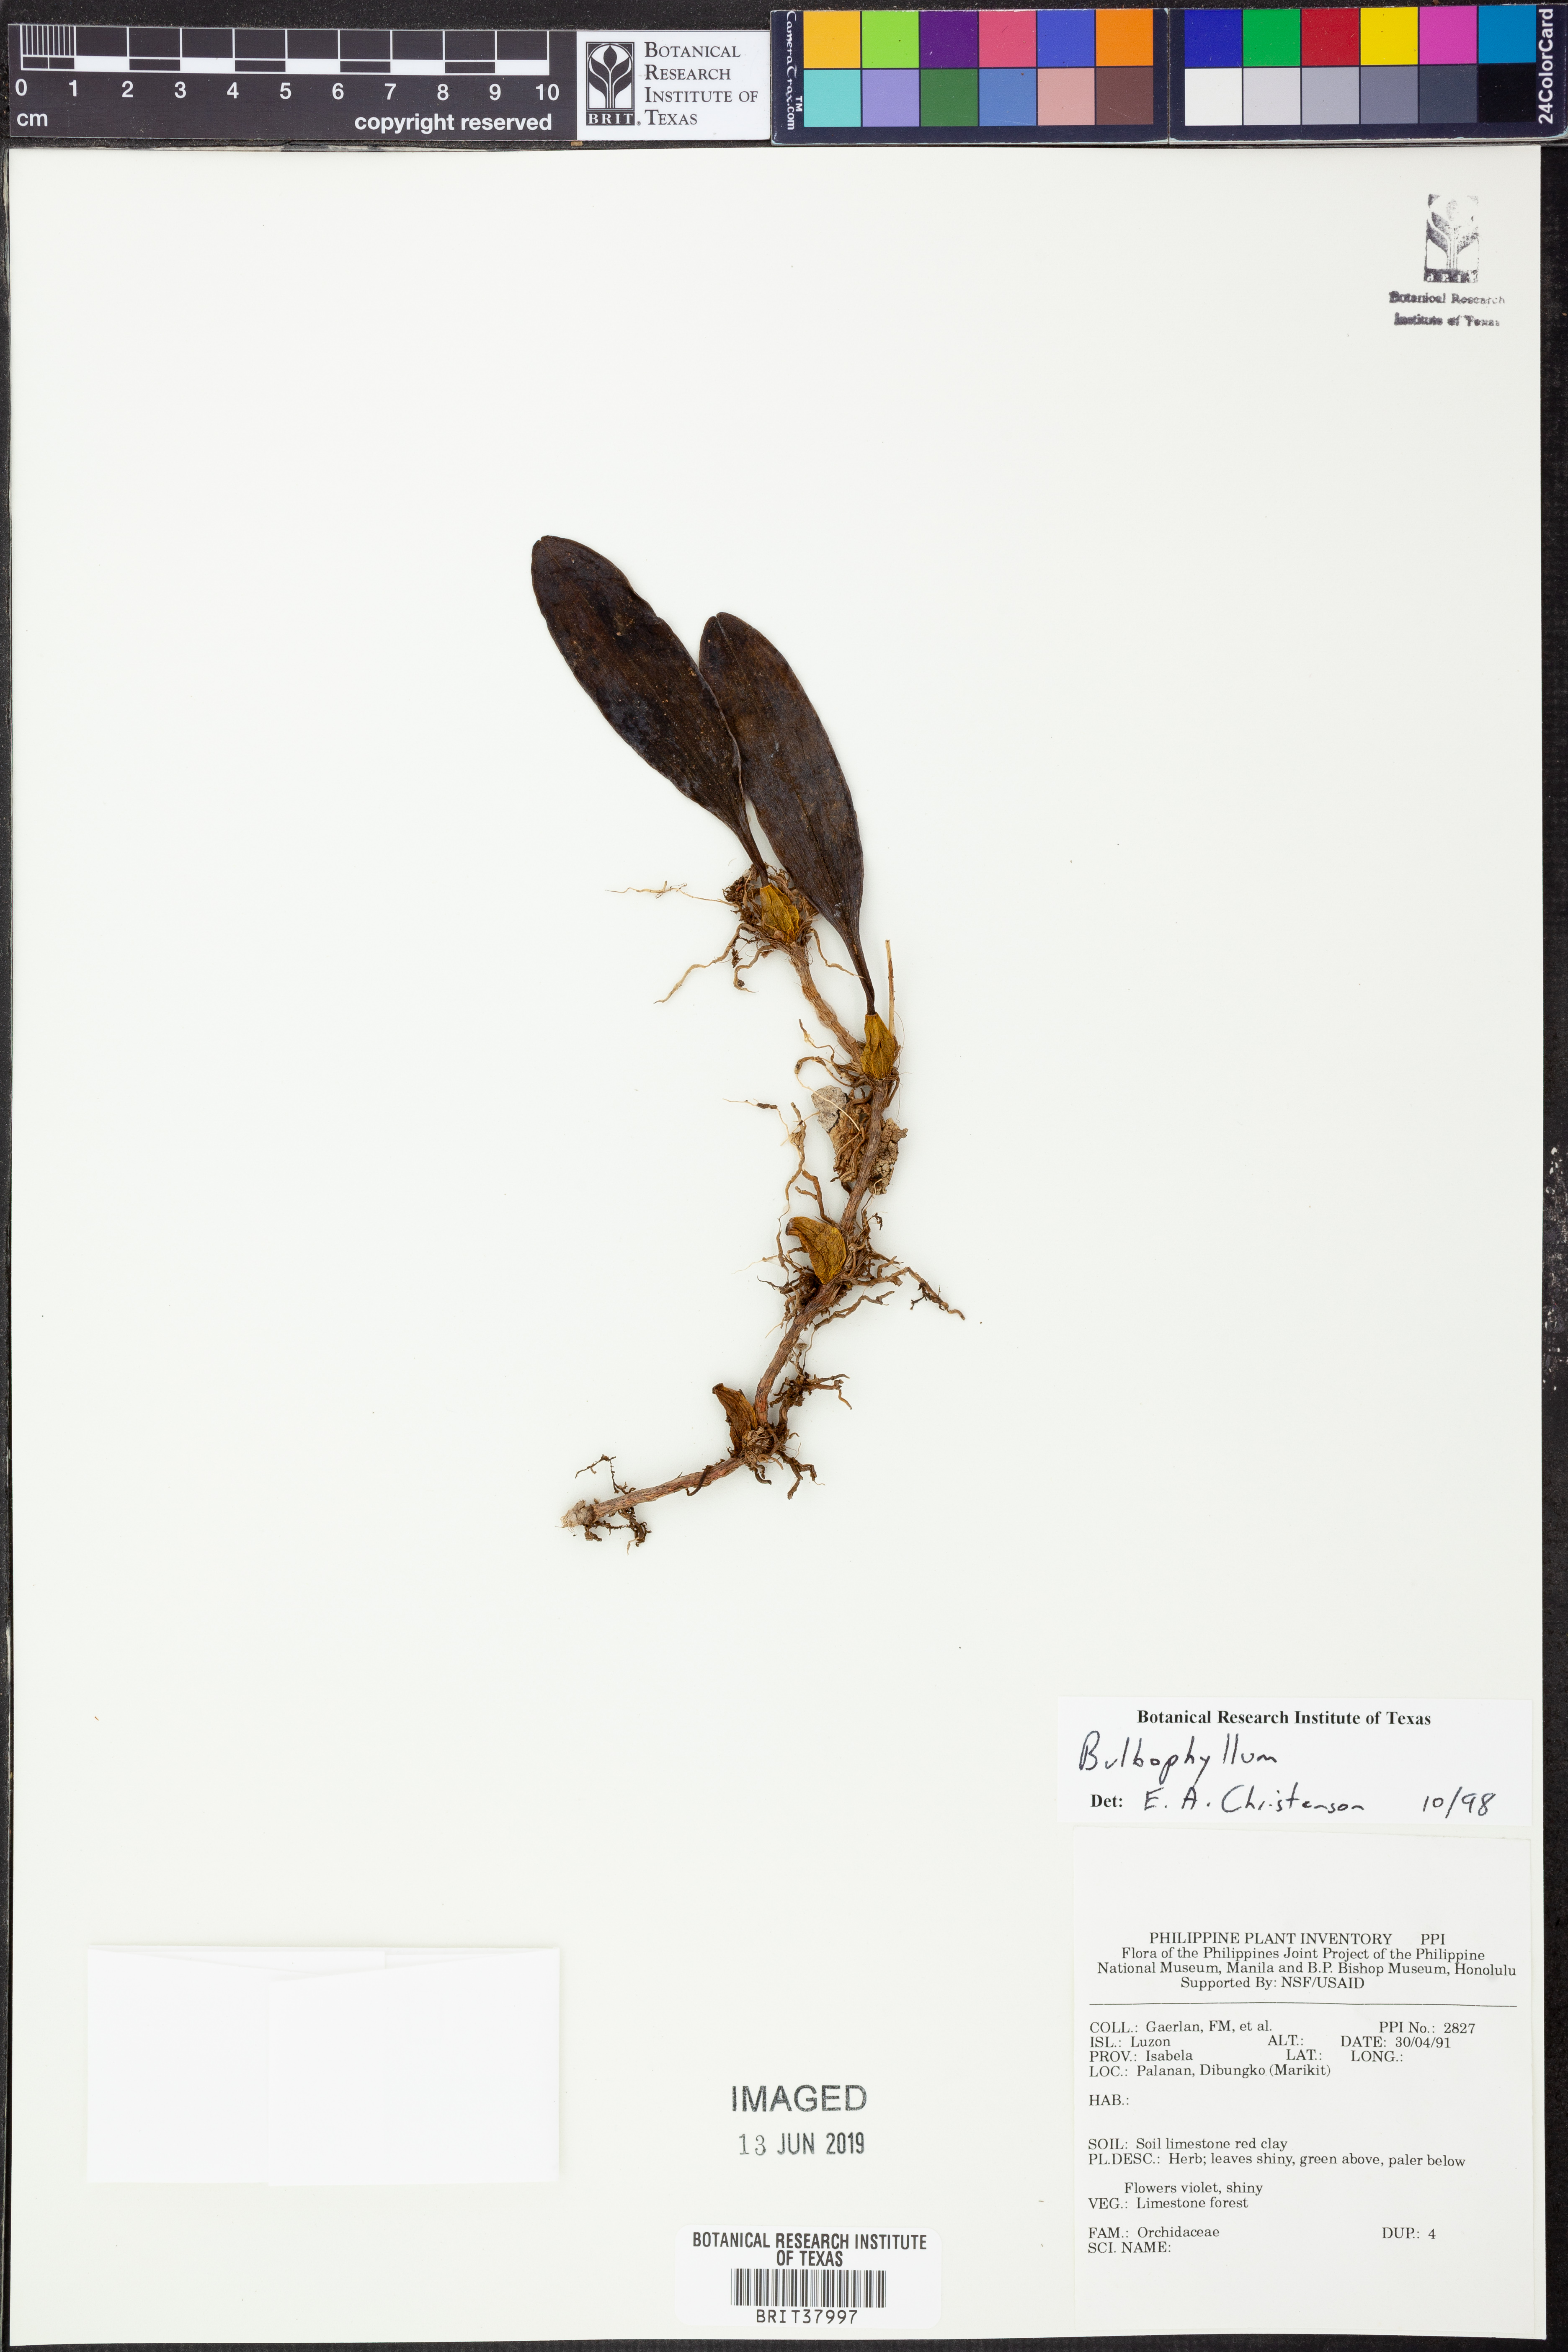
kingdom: Plantae
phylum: Tracheophyta
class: Liliopsida
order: Asparagales
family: Orchidaceae
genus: Bulbophyllum
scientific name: Bulbophyllum
